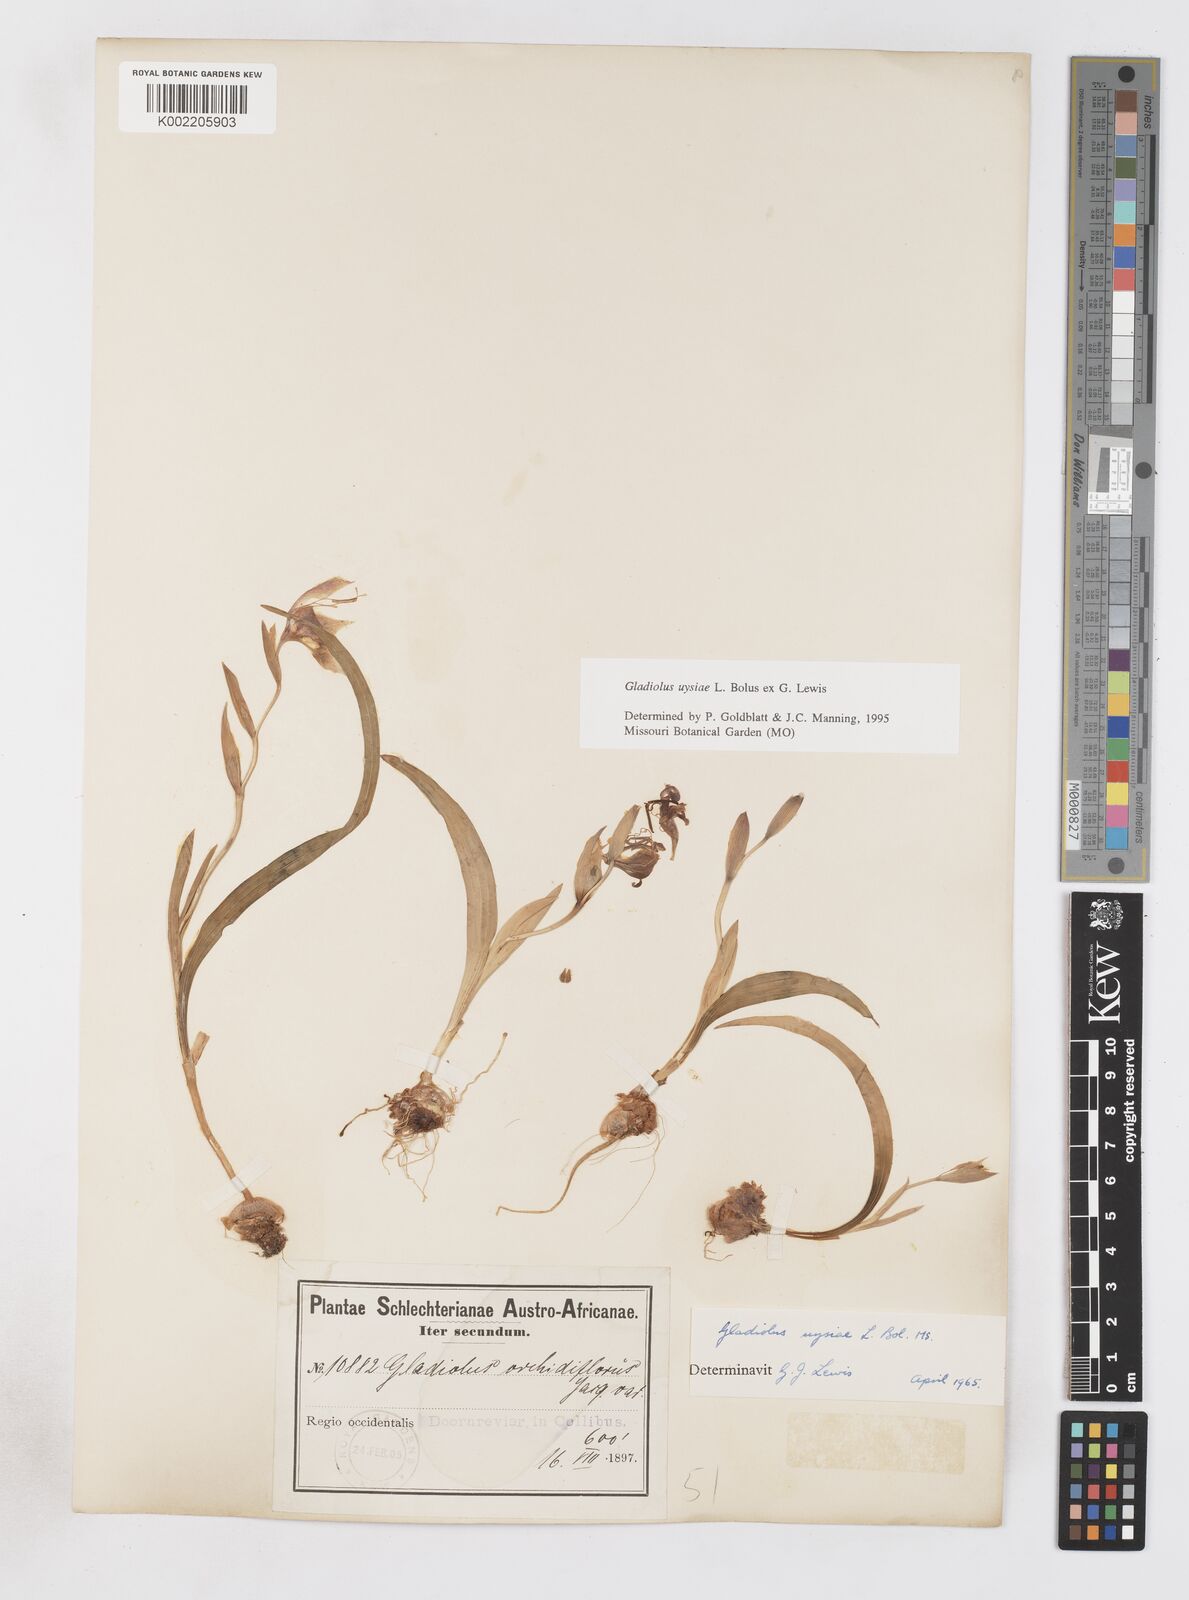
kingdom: Plantae
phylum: Tracheophyta
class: Liliopsida
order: Asparagales
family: Iridaceae
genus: Gladiolus
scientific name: Gladiolus uysiae
